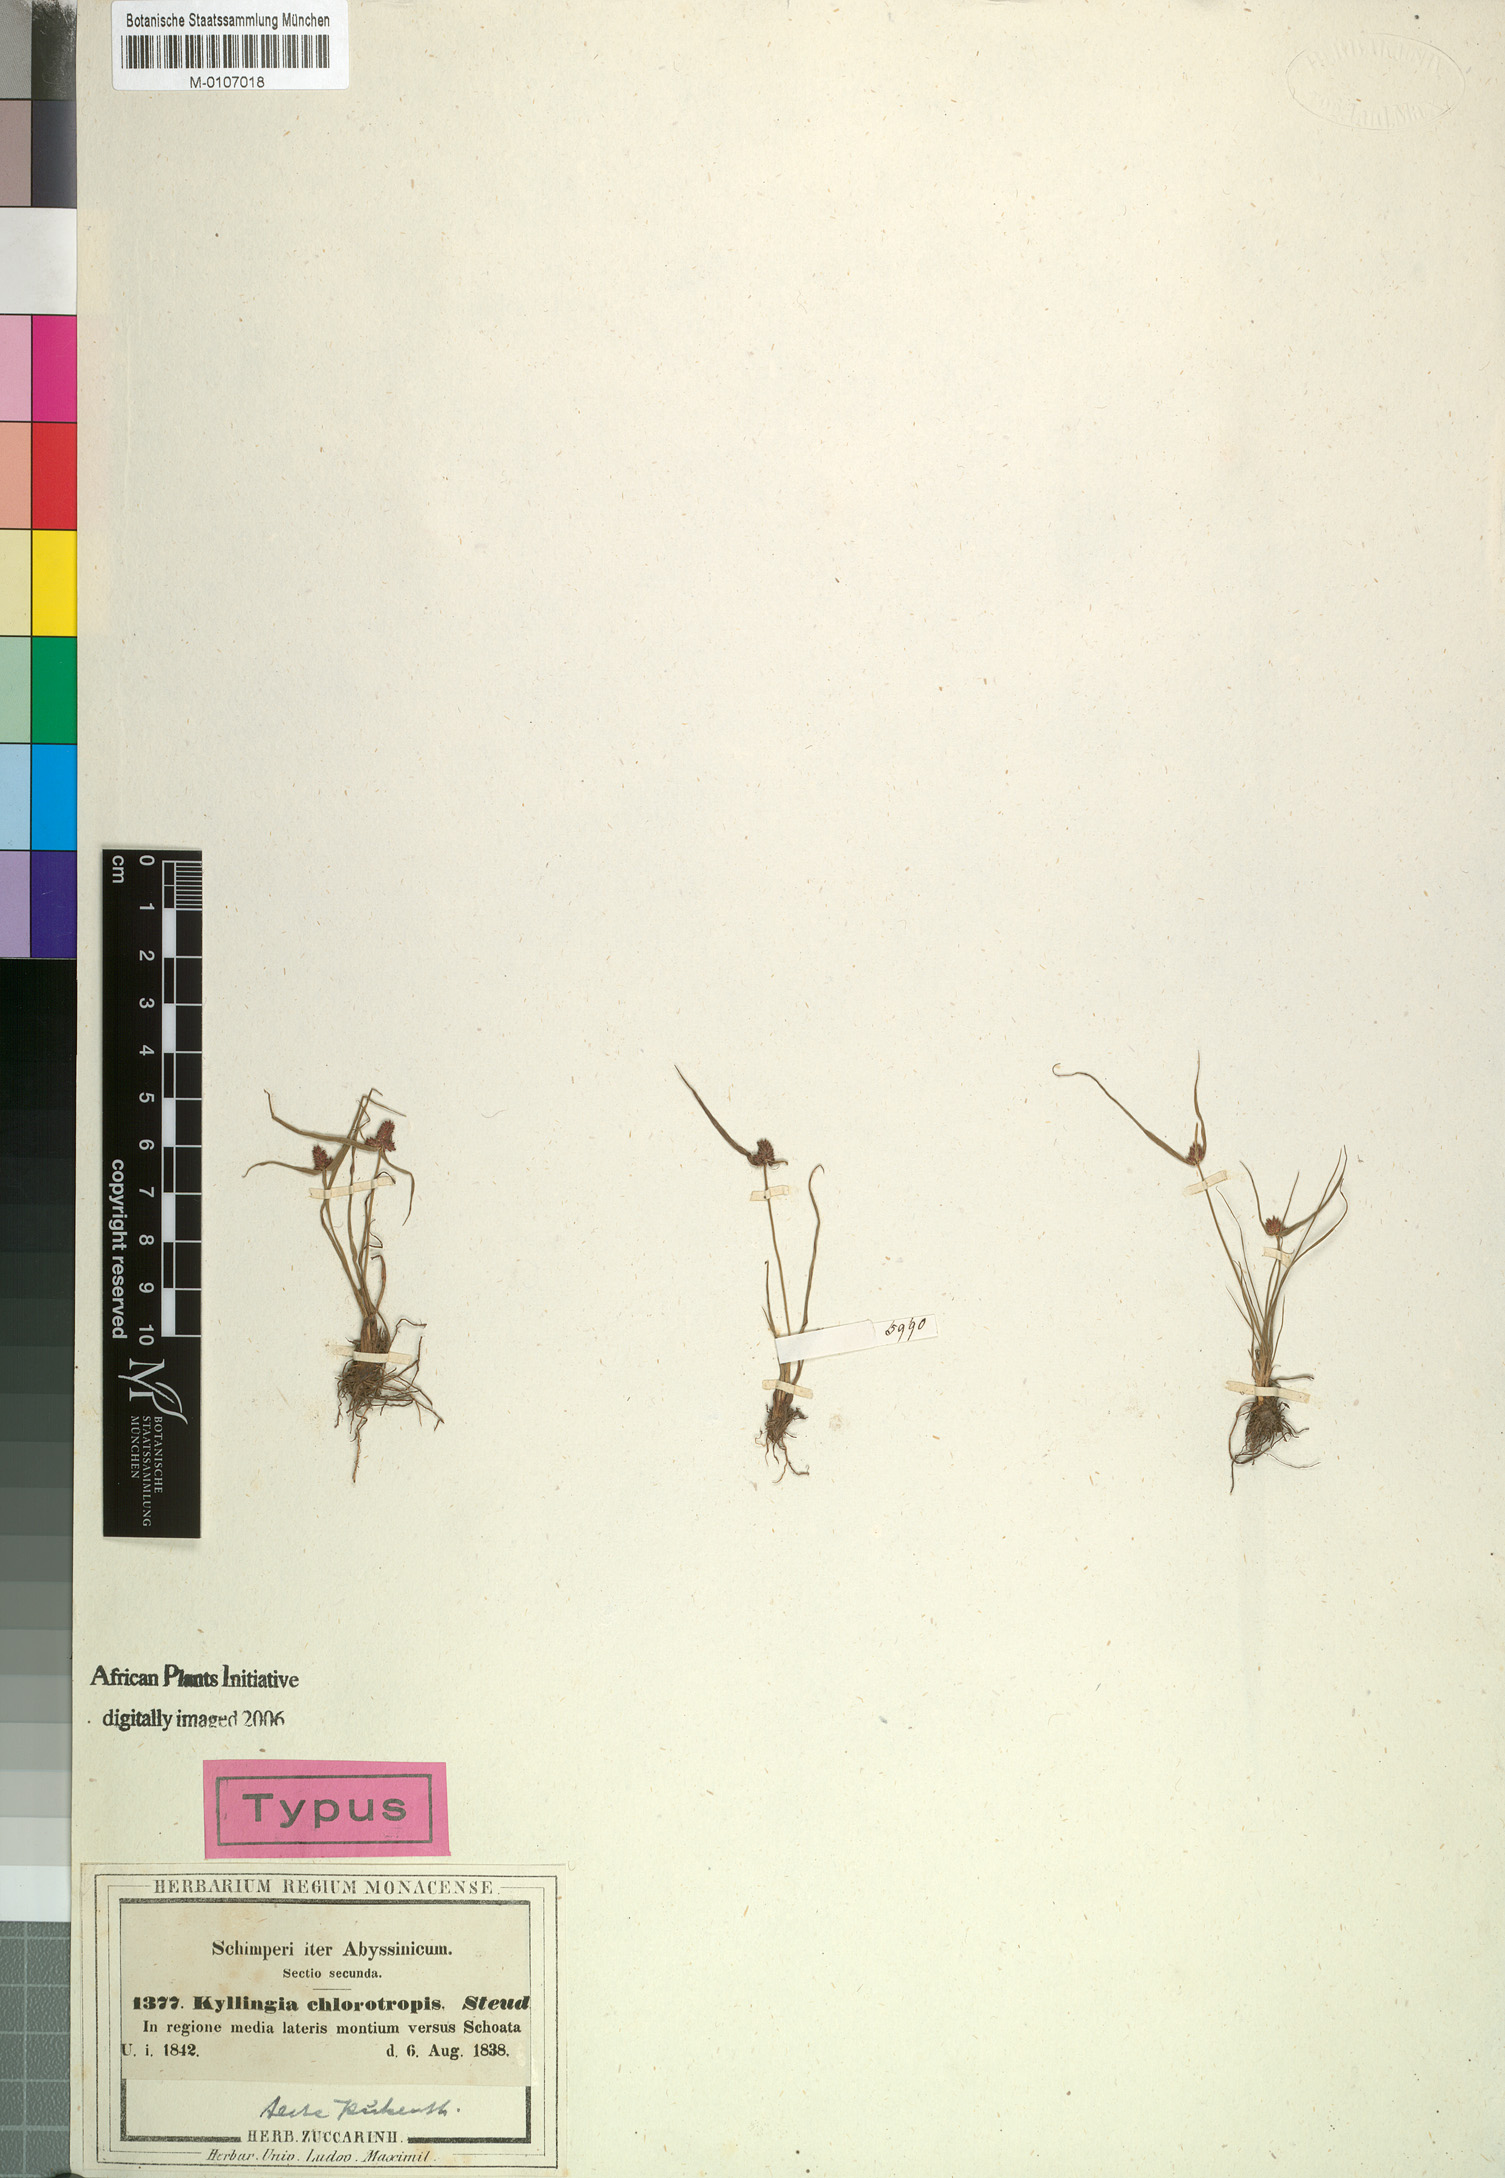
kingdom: Plantae
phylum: Tracheophyta
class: Liliopsida
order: Poales
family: Cyperaceae
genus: Cyperus
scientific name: Cyperus chlorotropis
